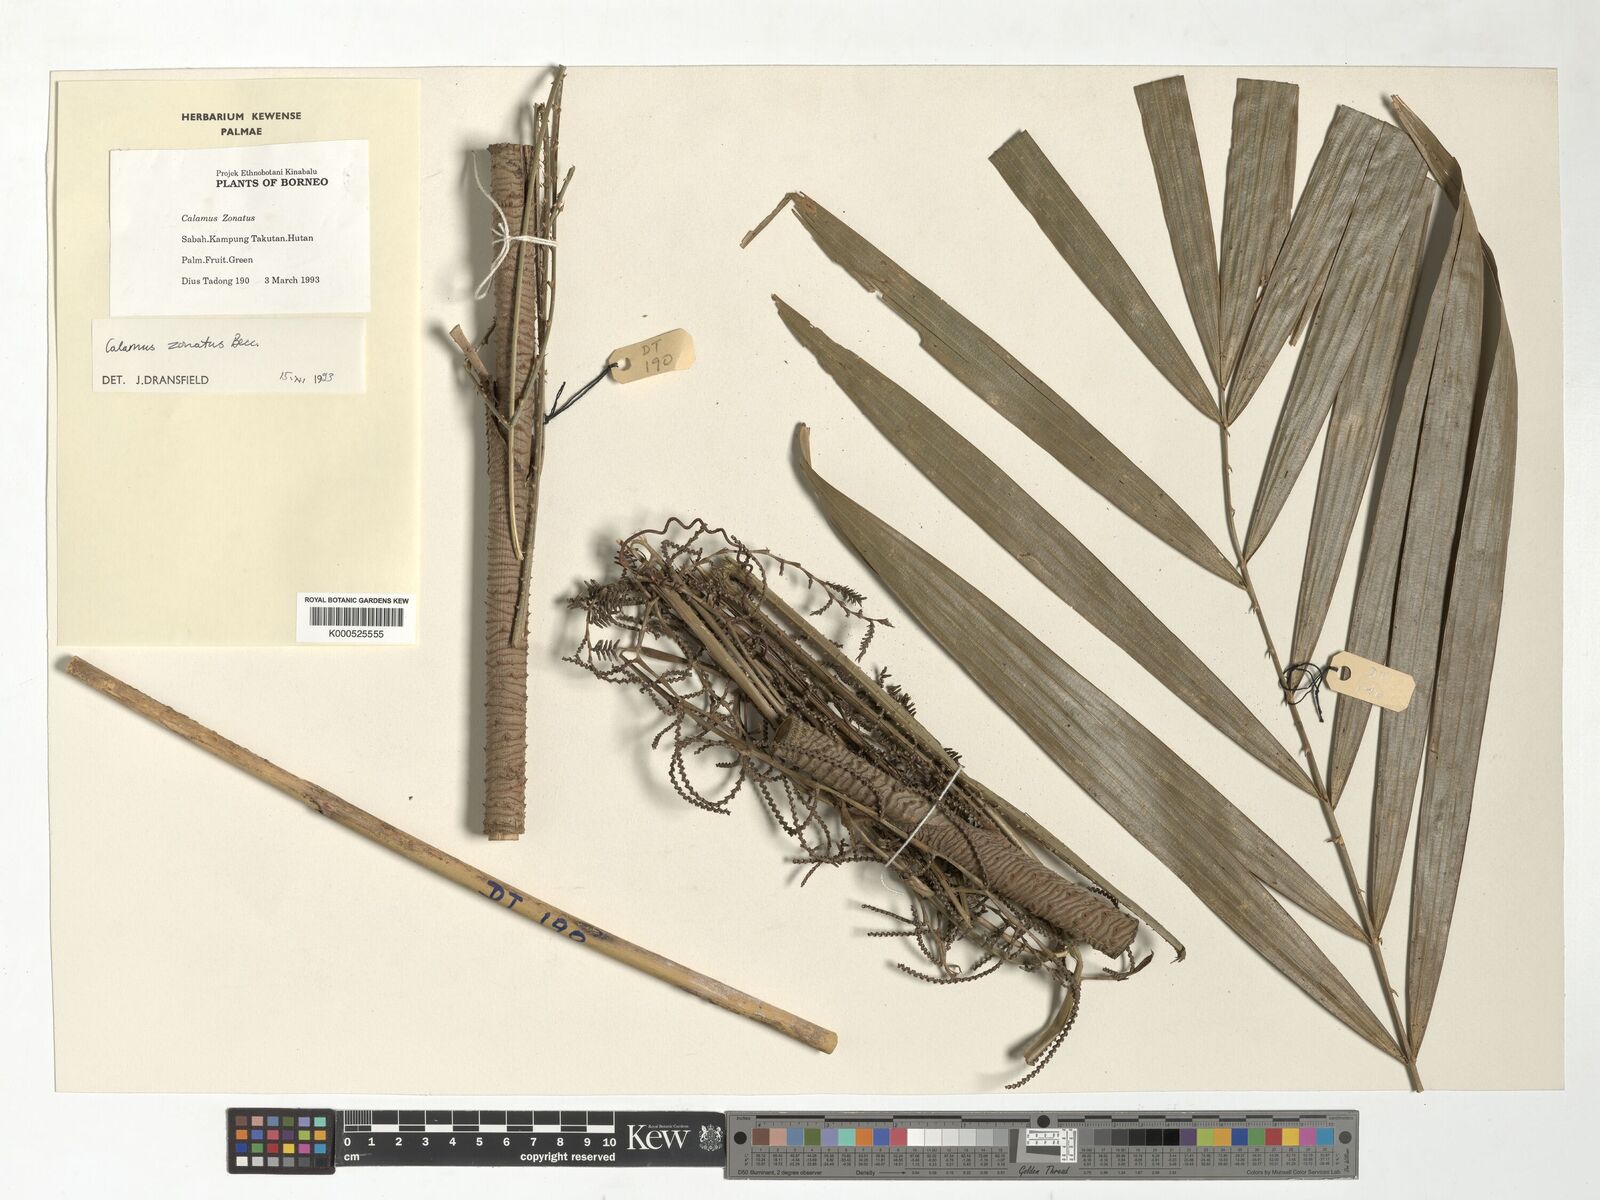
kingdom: Plantae
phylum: Tracheophyta
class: Liliopsida
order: Arecales
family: Arecaceae
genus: Calamus
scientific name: Calamus zonatus
